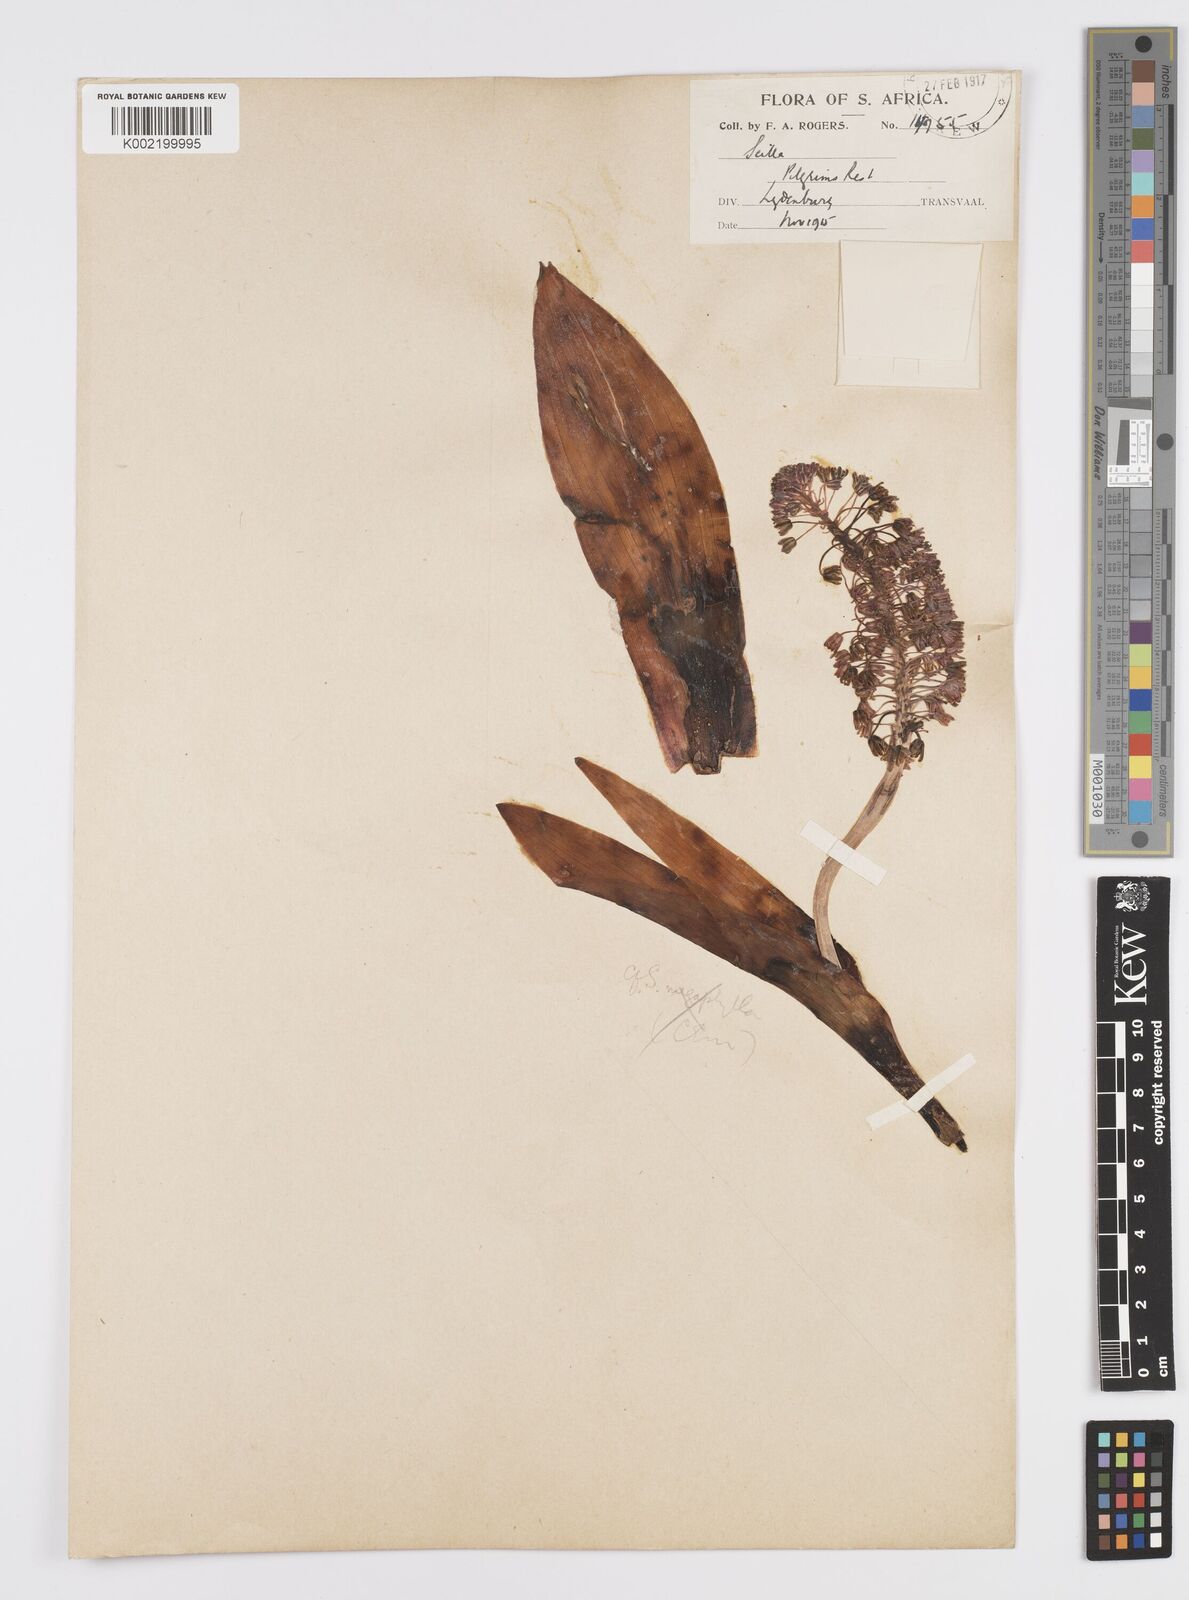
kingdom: Plantae
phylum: Tracheophyta
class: Liliopsida
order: Asparagales
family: Asparagaceae
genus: Ledebouria
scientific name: Ledebouria ovatifolia
